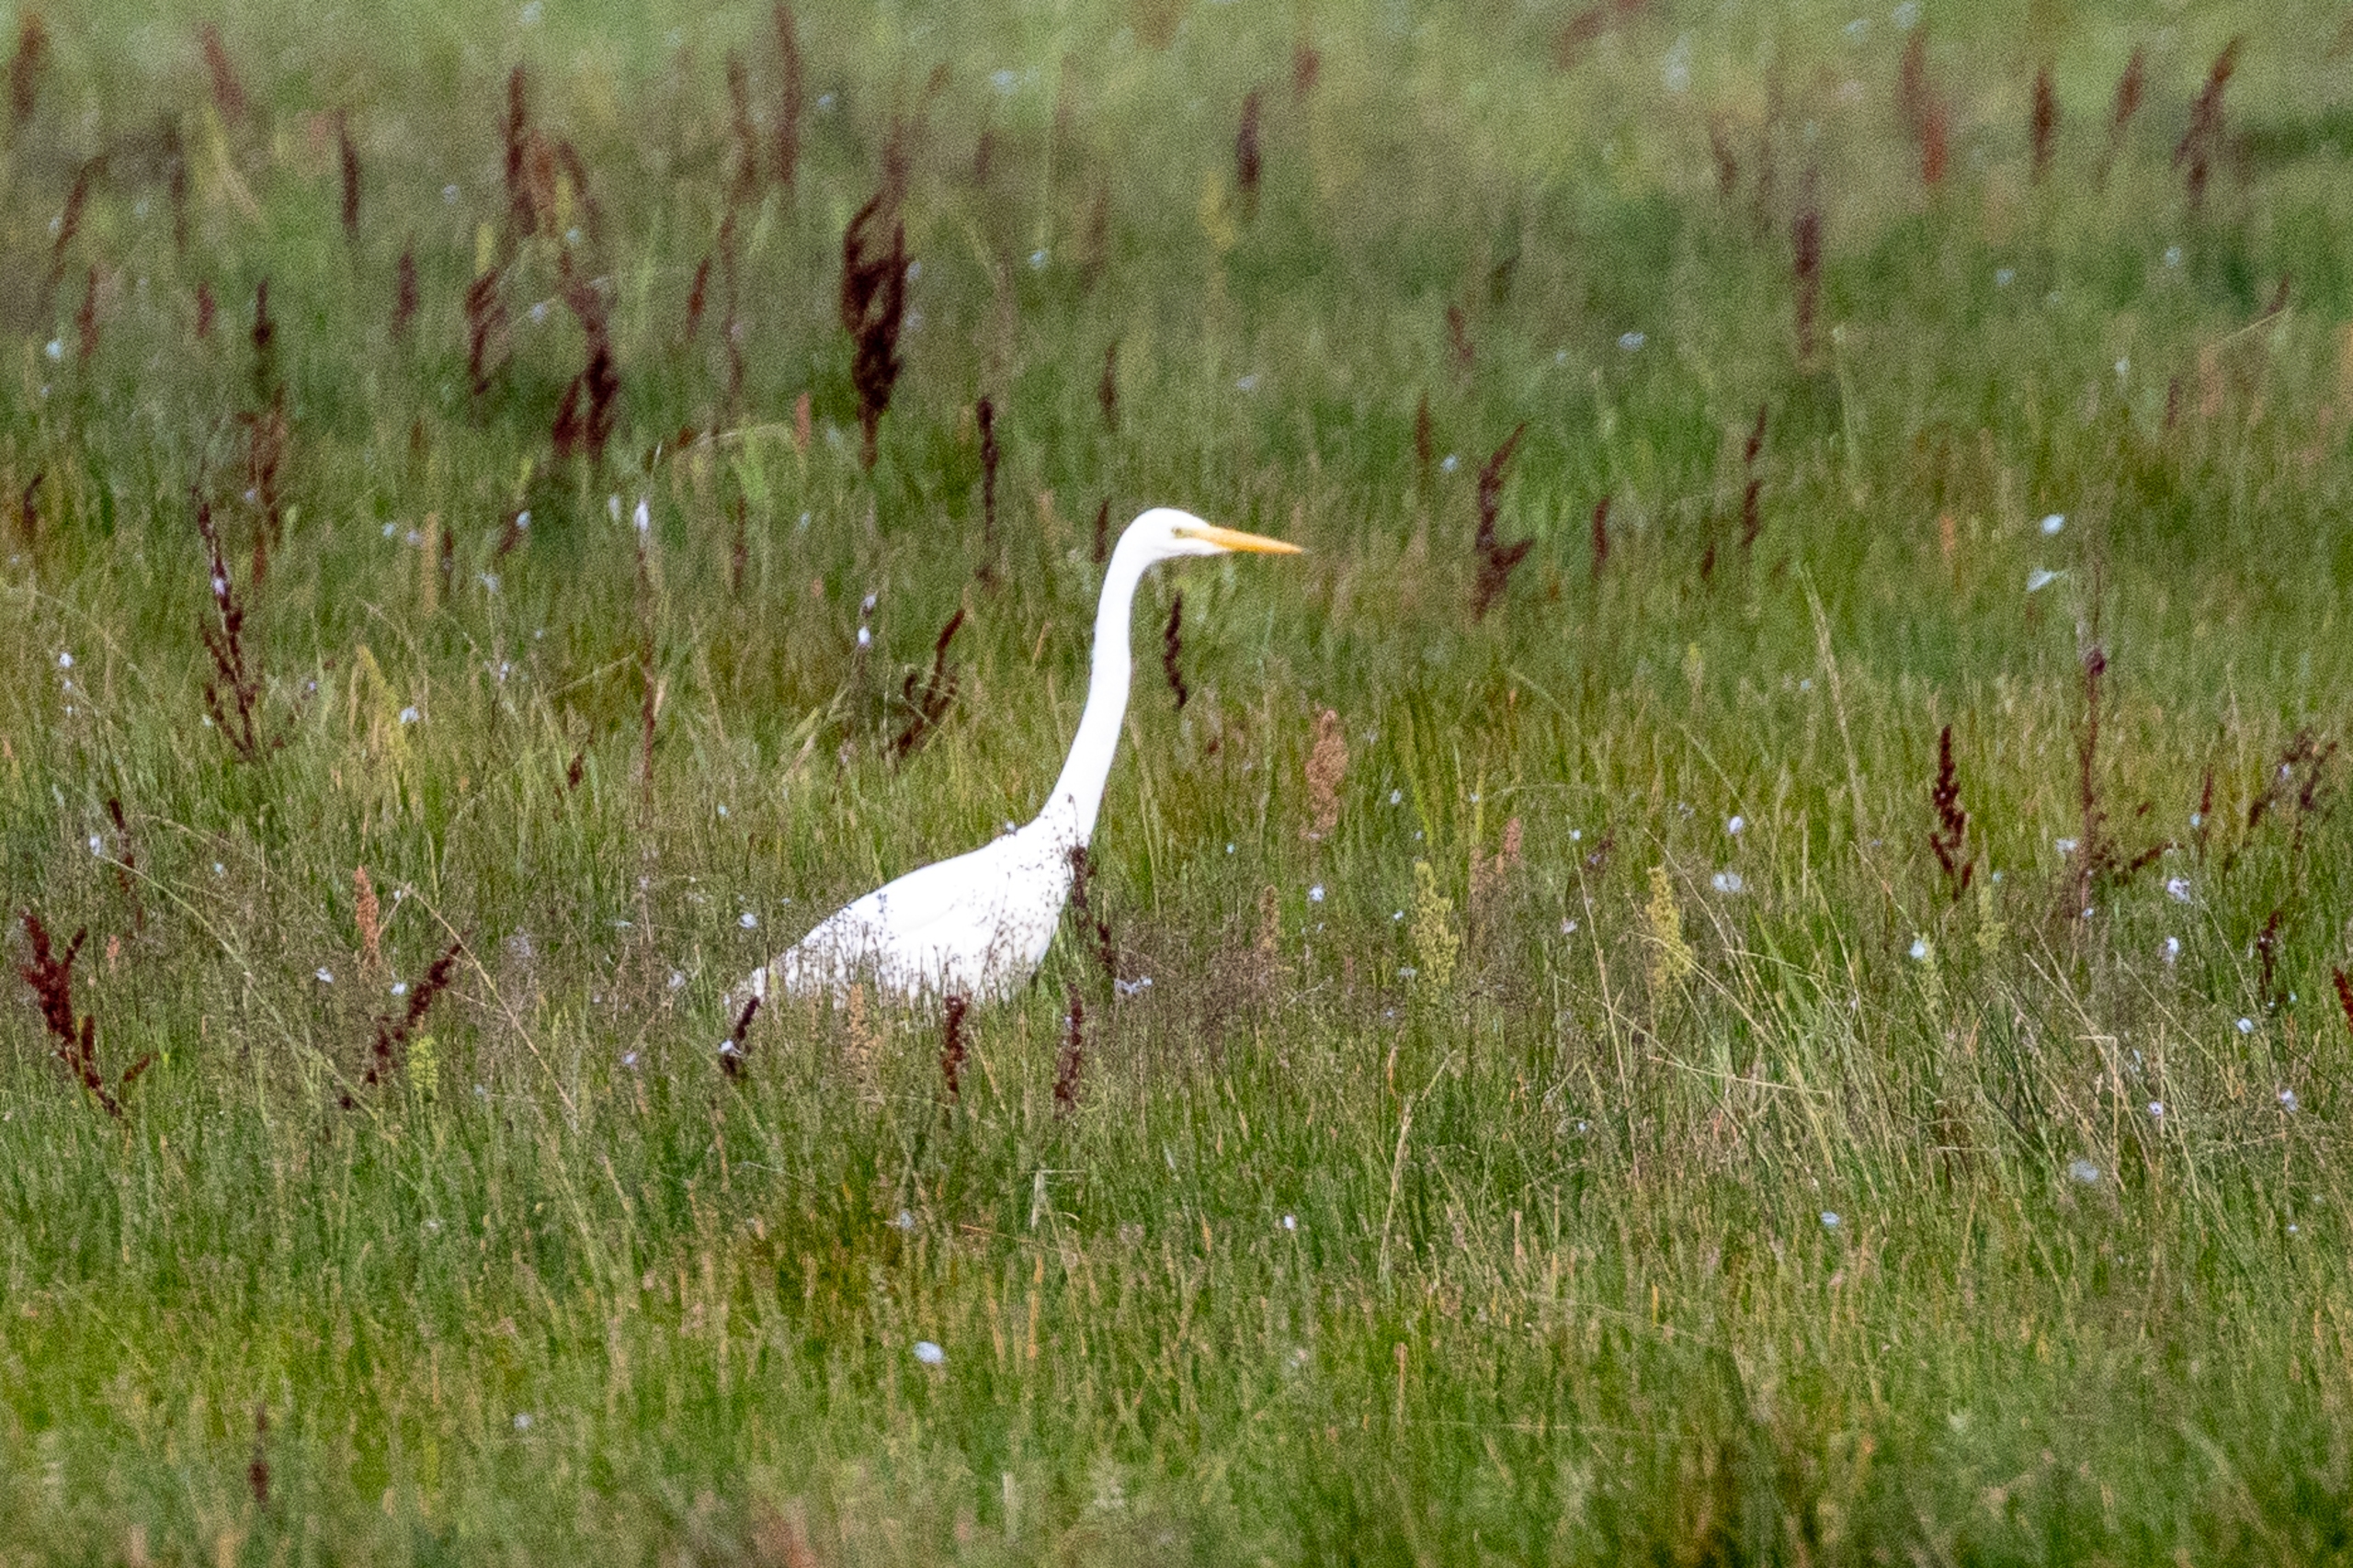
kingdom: Animalia
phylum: Chordata
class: Aves
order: Pelecaniformes
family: Ardeidae
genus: Ardea
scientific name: Ardea alba
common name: Sølvhejre
